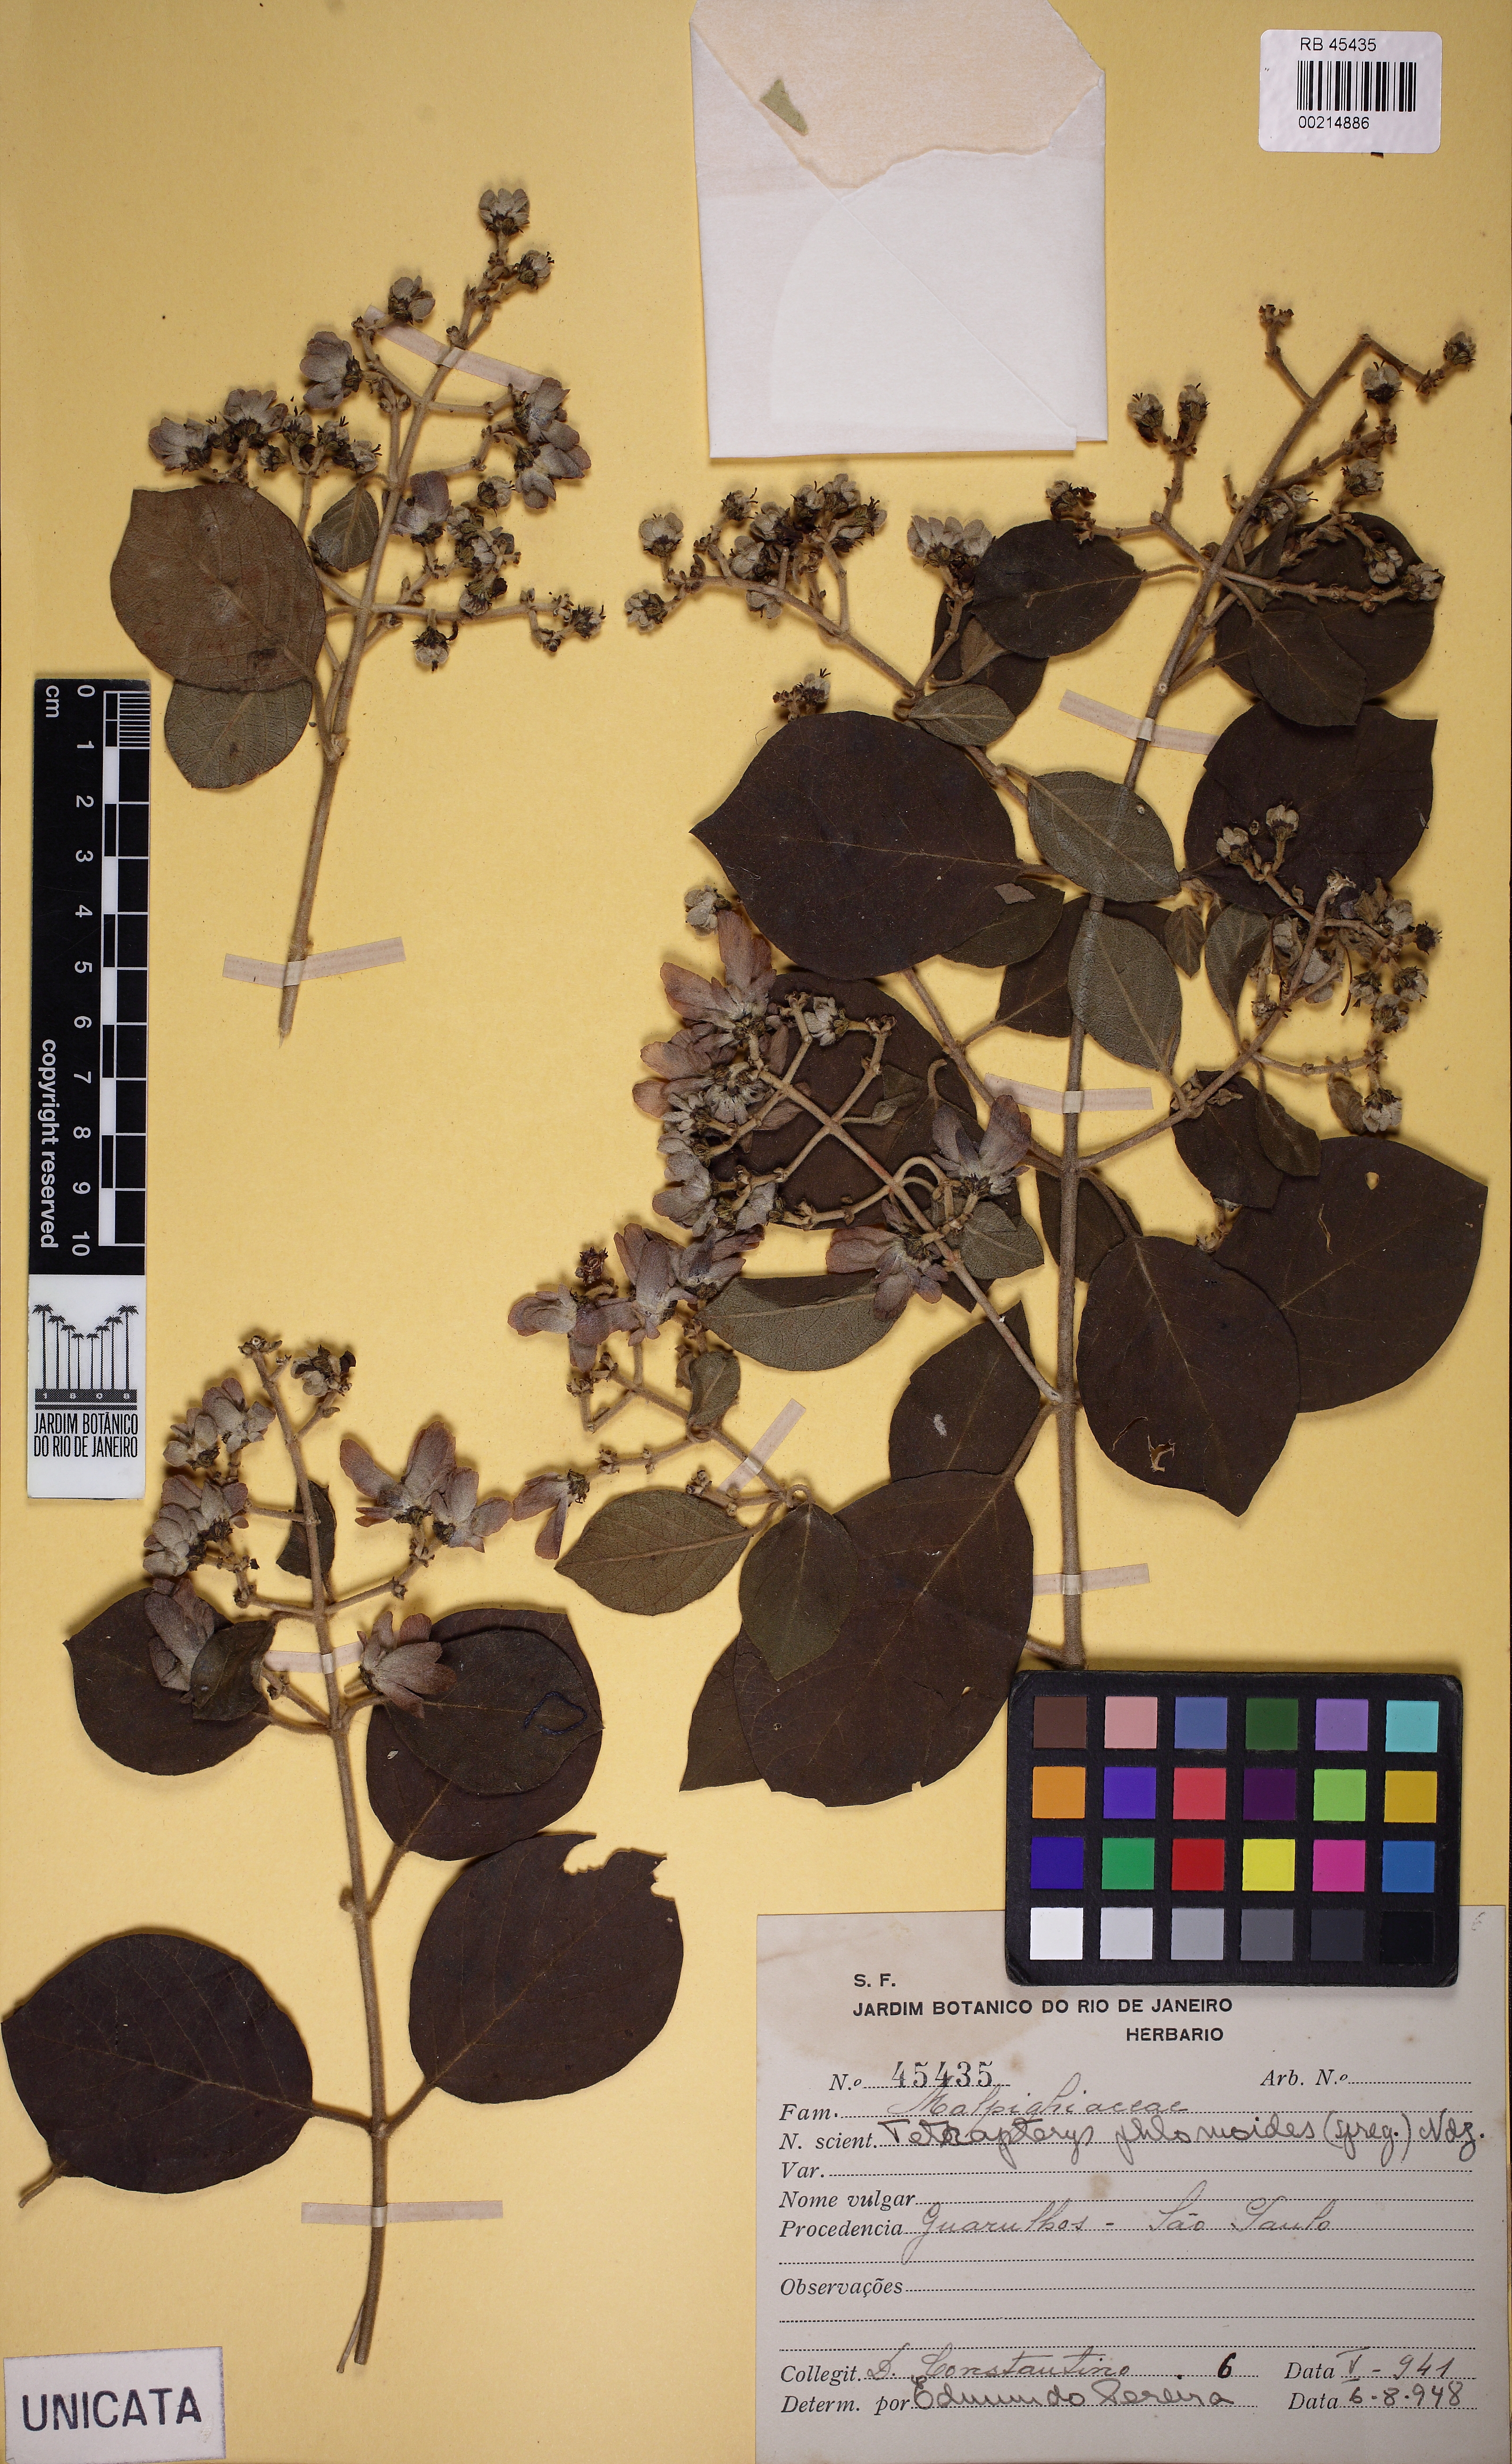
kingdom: Plantae
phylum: Tracheophyta
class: Magnoliopsida
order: Malpighiales
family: Malpighiaceae
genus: Tetrapterys
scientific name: Tetrapterys phlomoides
